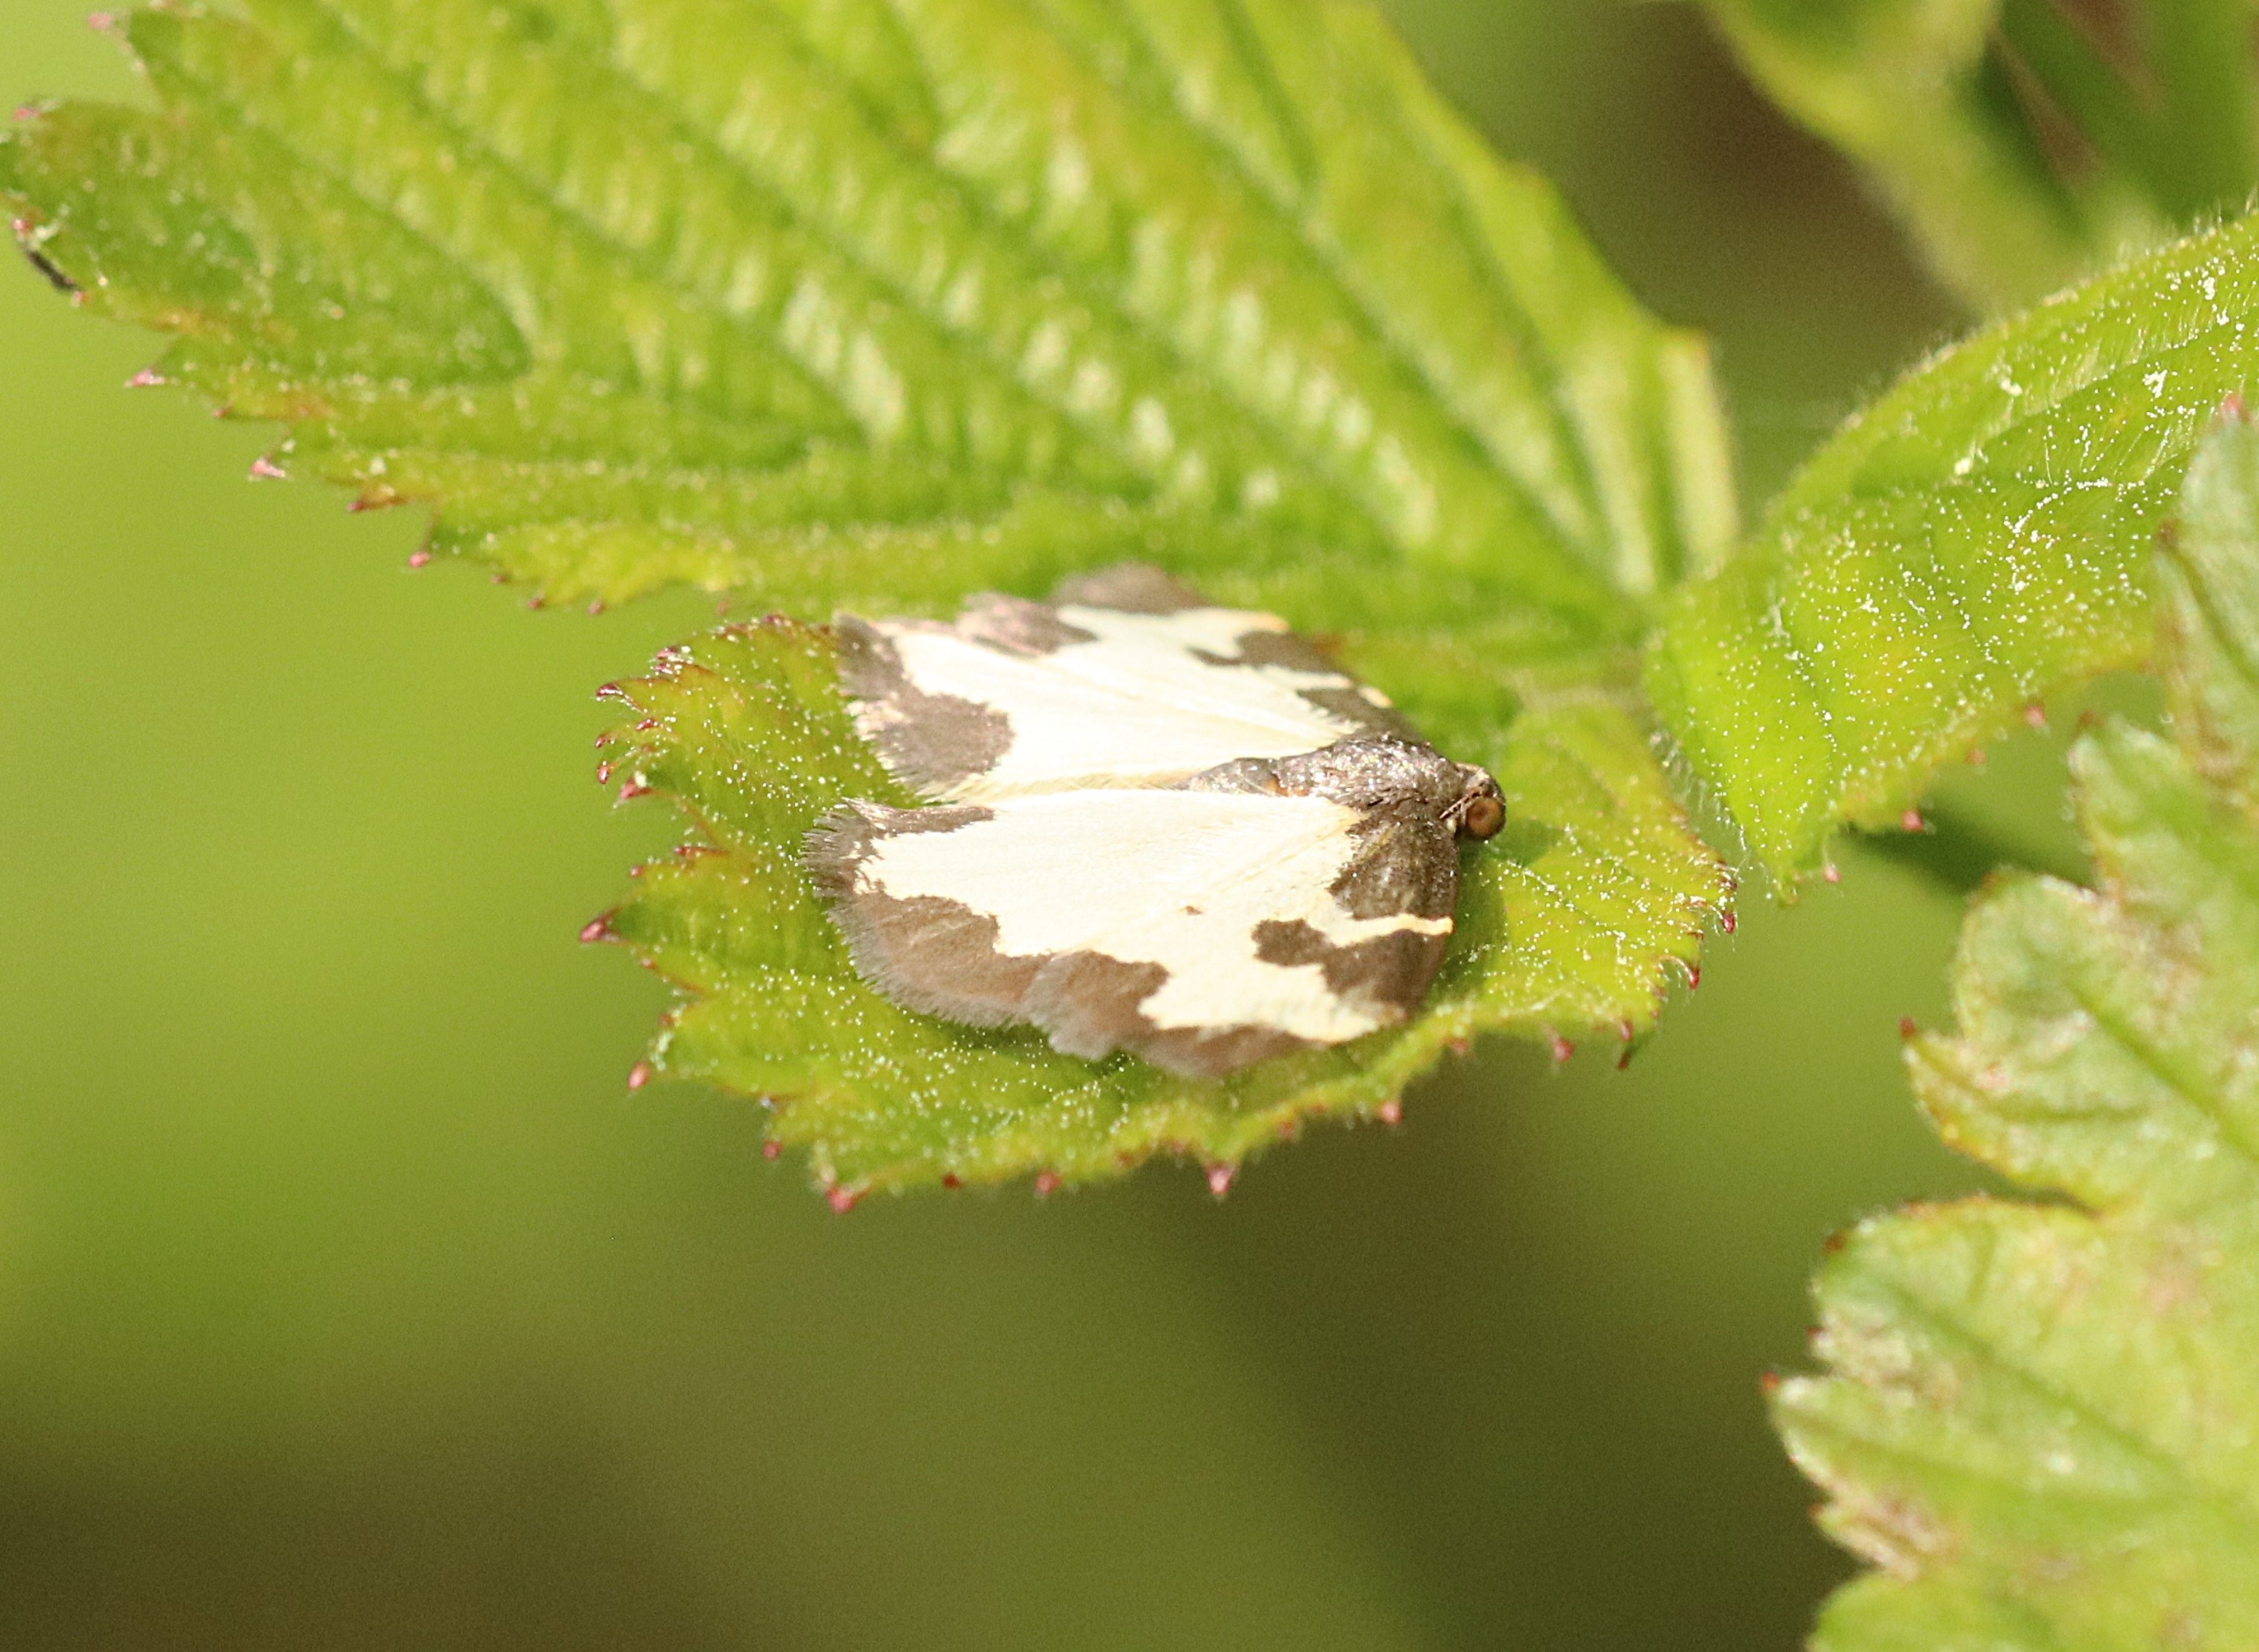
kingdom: Animalia
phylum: Arthropoda
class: Insecta
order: Lepidoptera
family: Geometridae
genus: Lomaspilis
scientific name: Lomaspilis marginata
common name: Sortrandet måler
